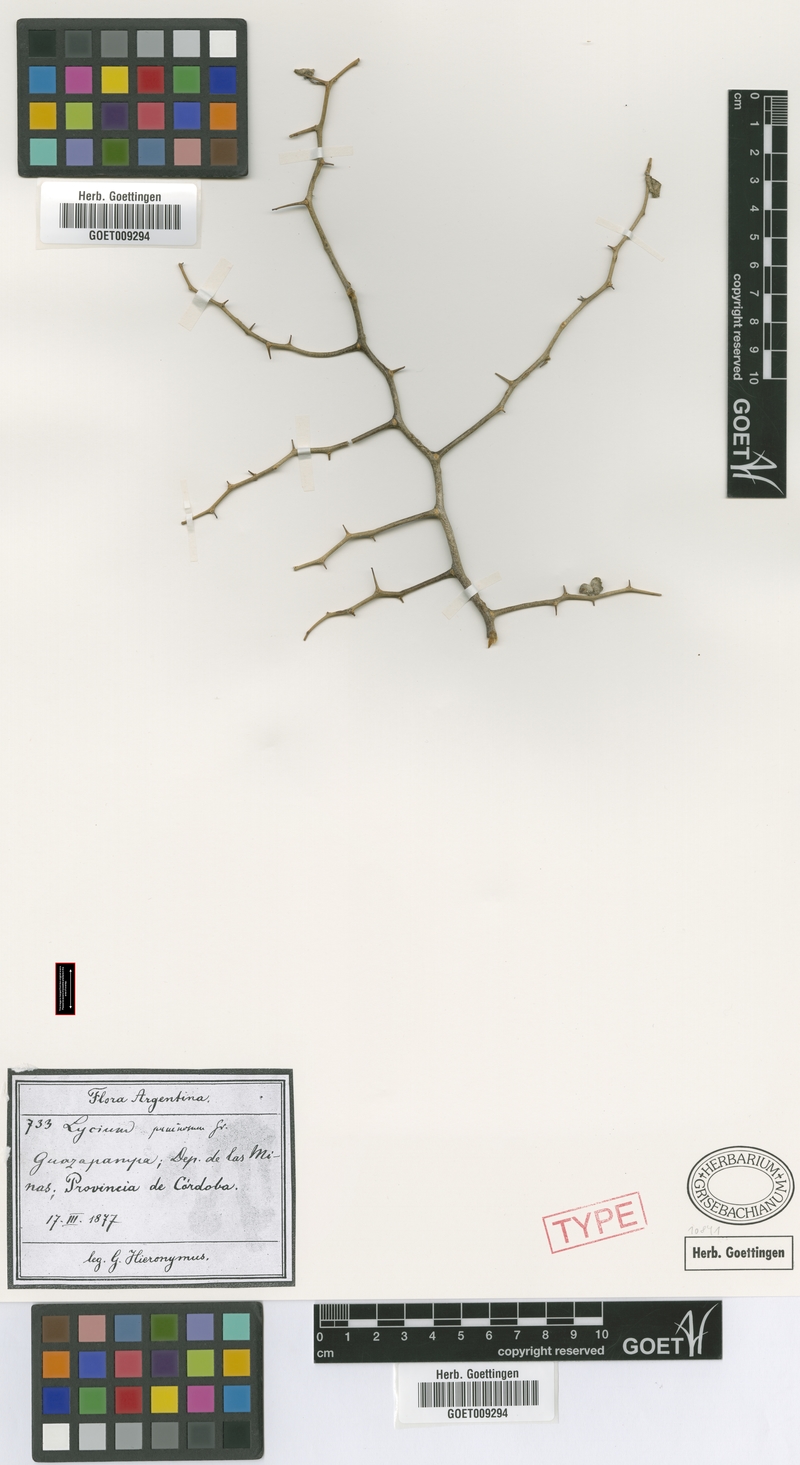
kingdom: Plantae
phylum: Tracheophyta
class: Magnoliopsida
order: Solanales
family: Solanaceae
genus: Lycium
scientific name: Lycium americanum
